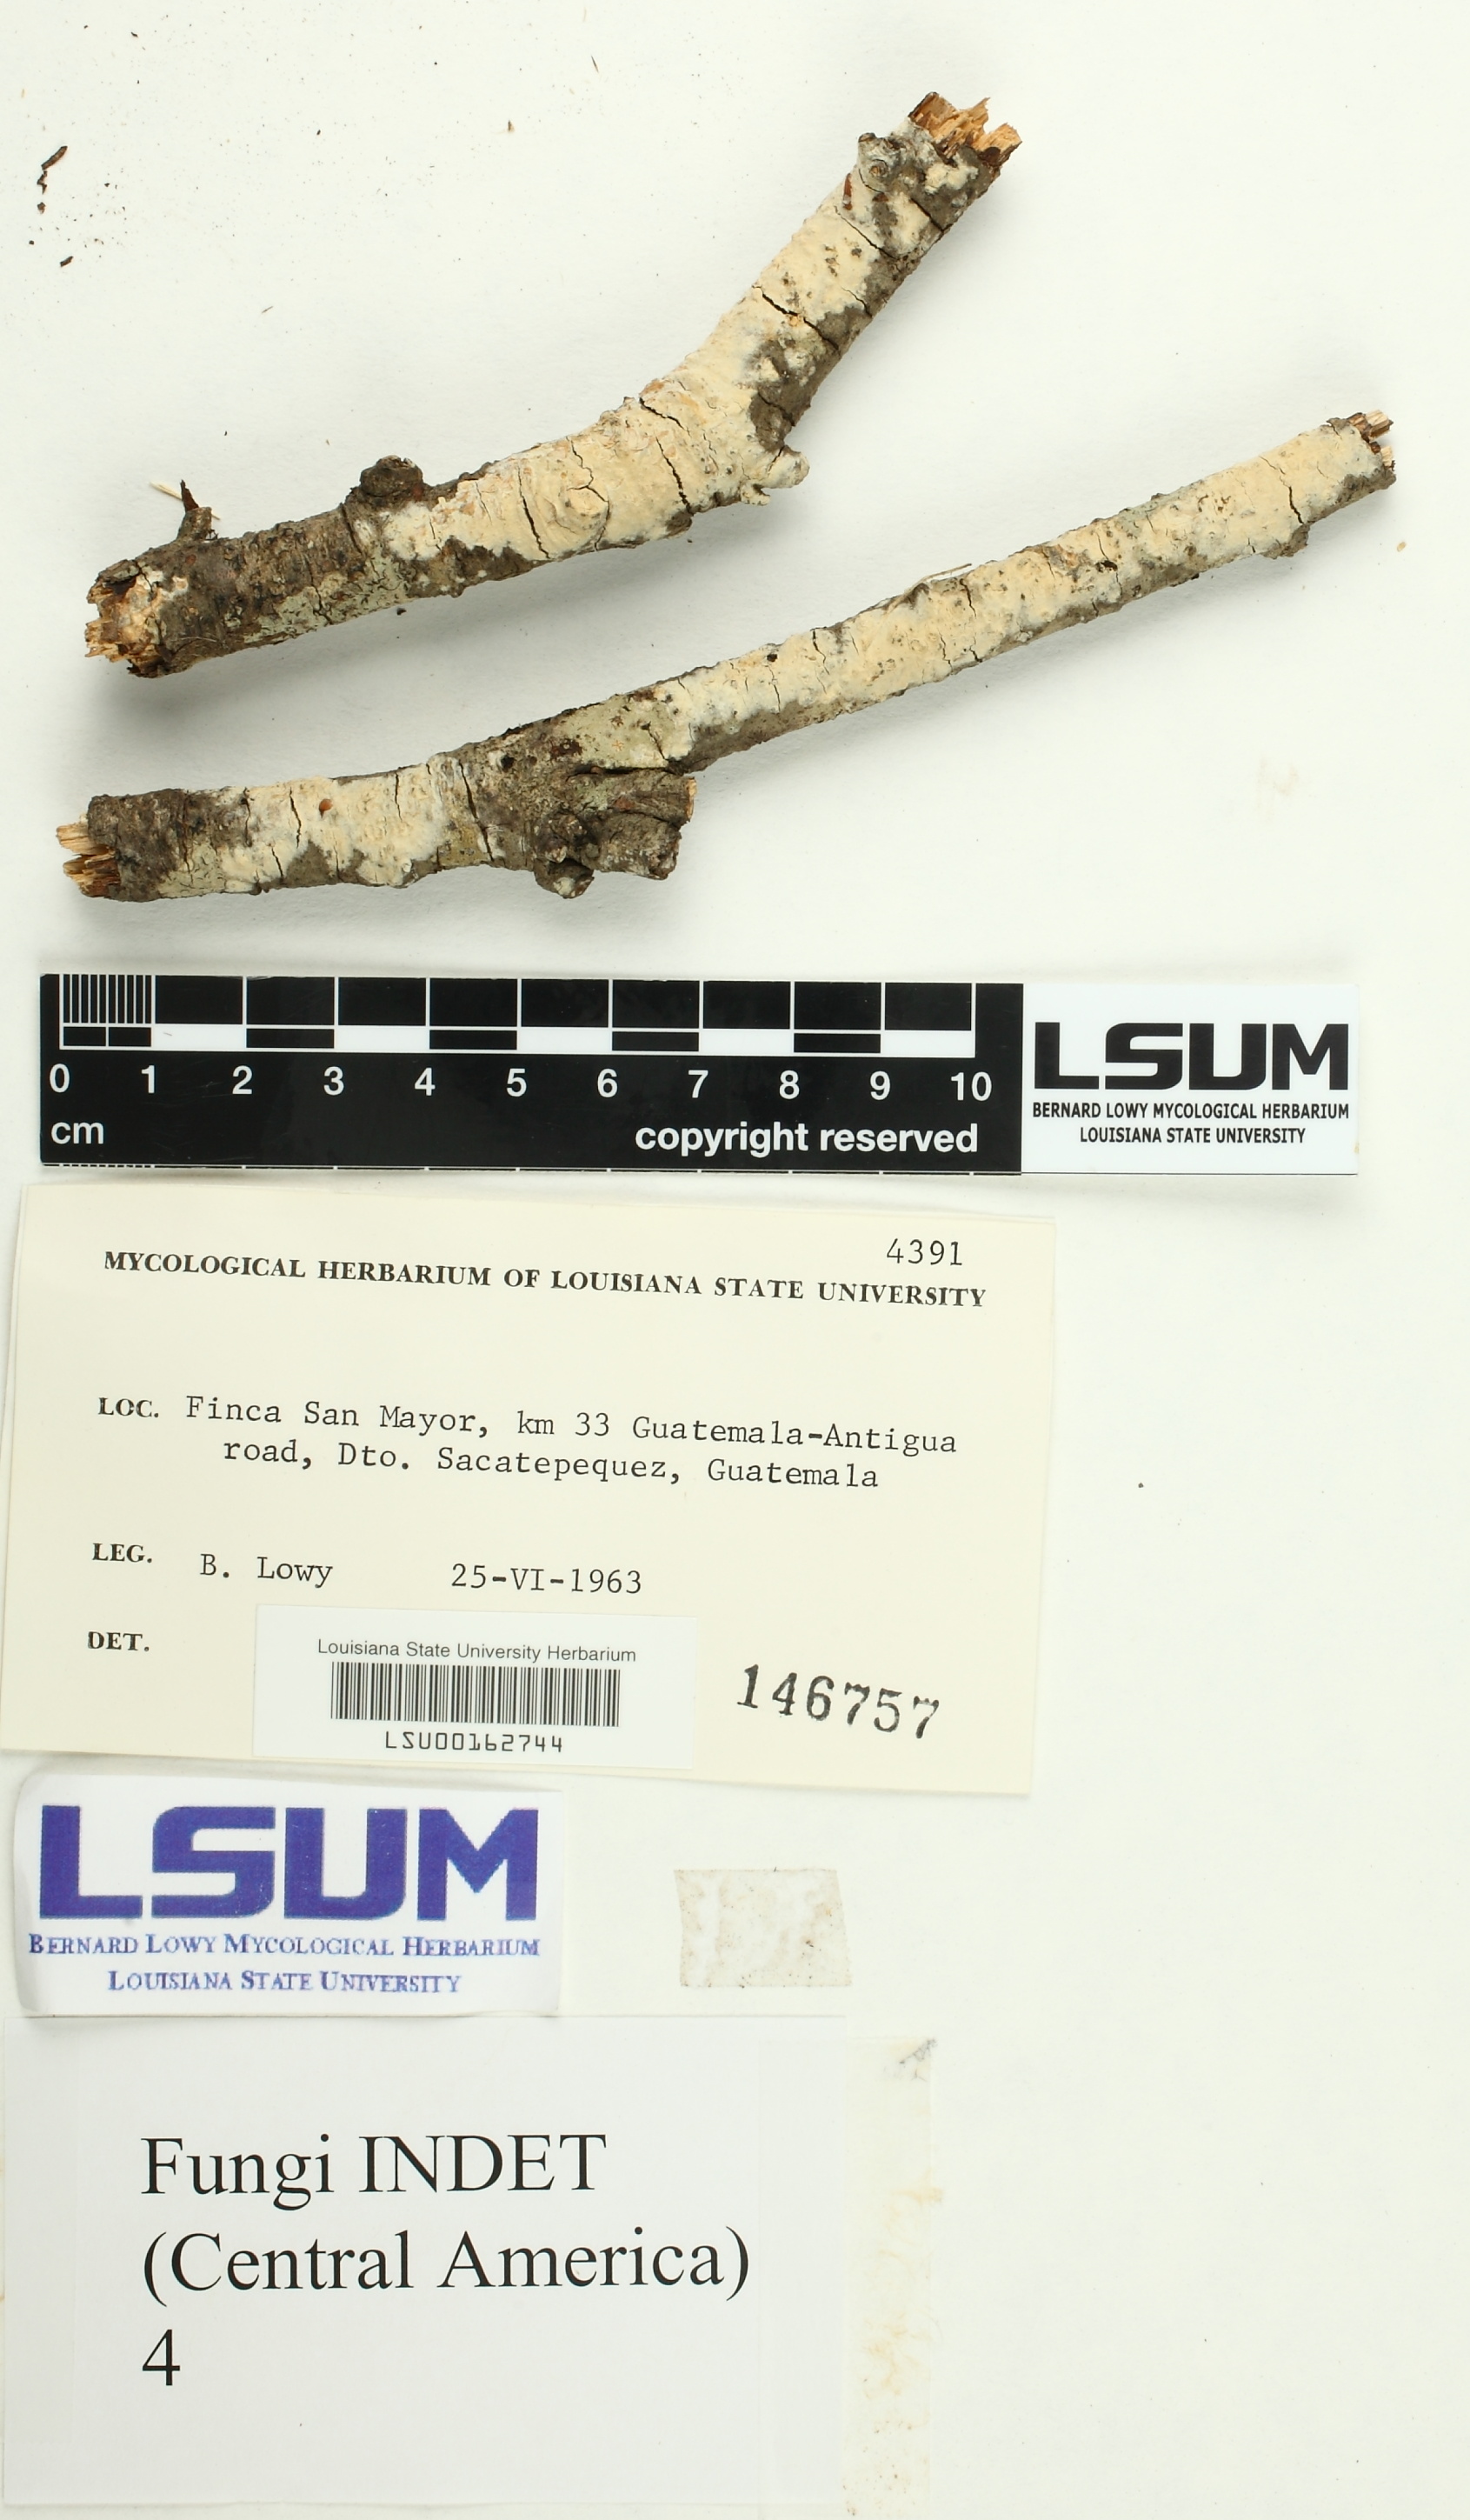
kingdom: Fungi
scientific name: Fungi
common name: Fungi
